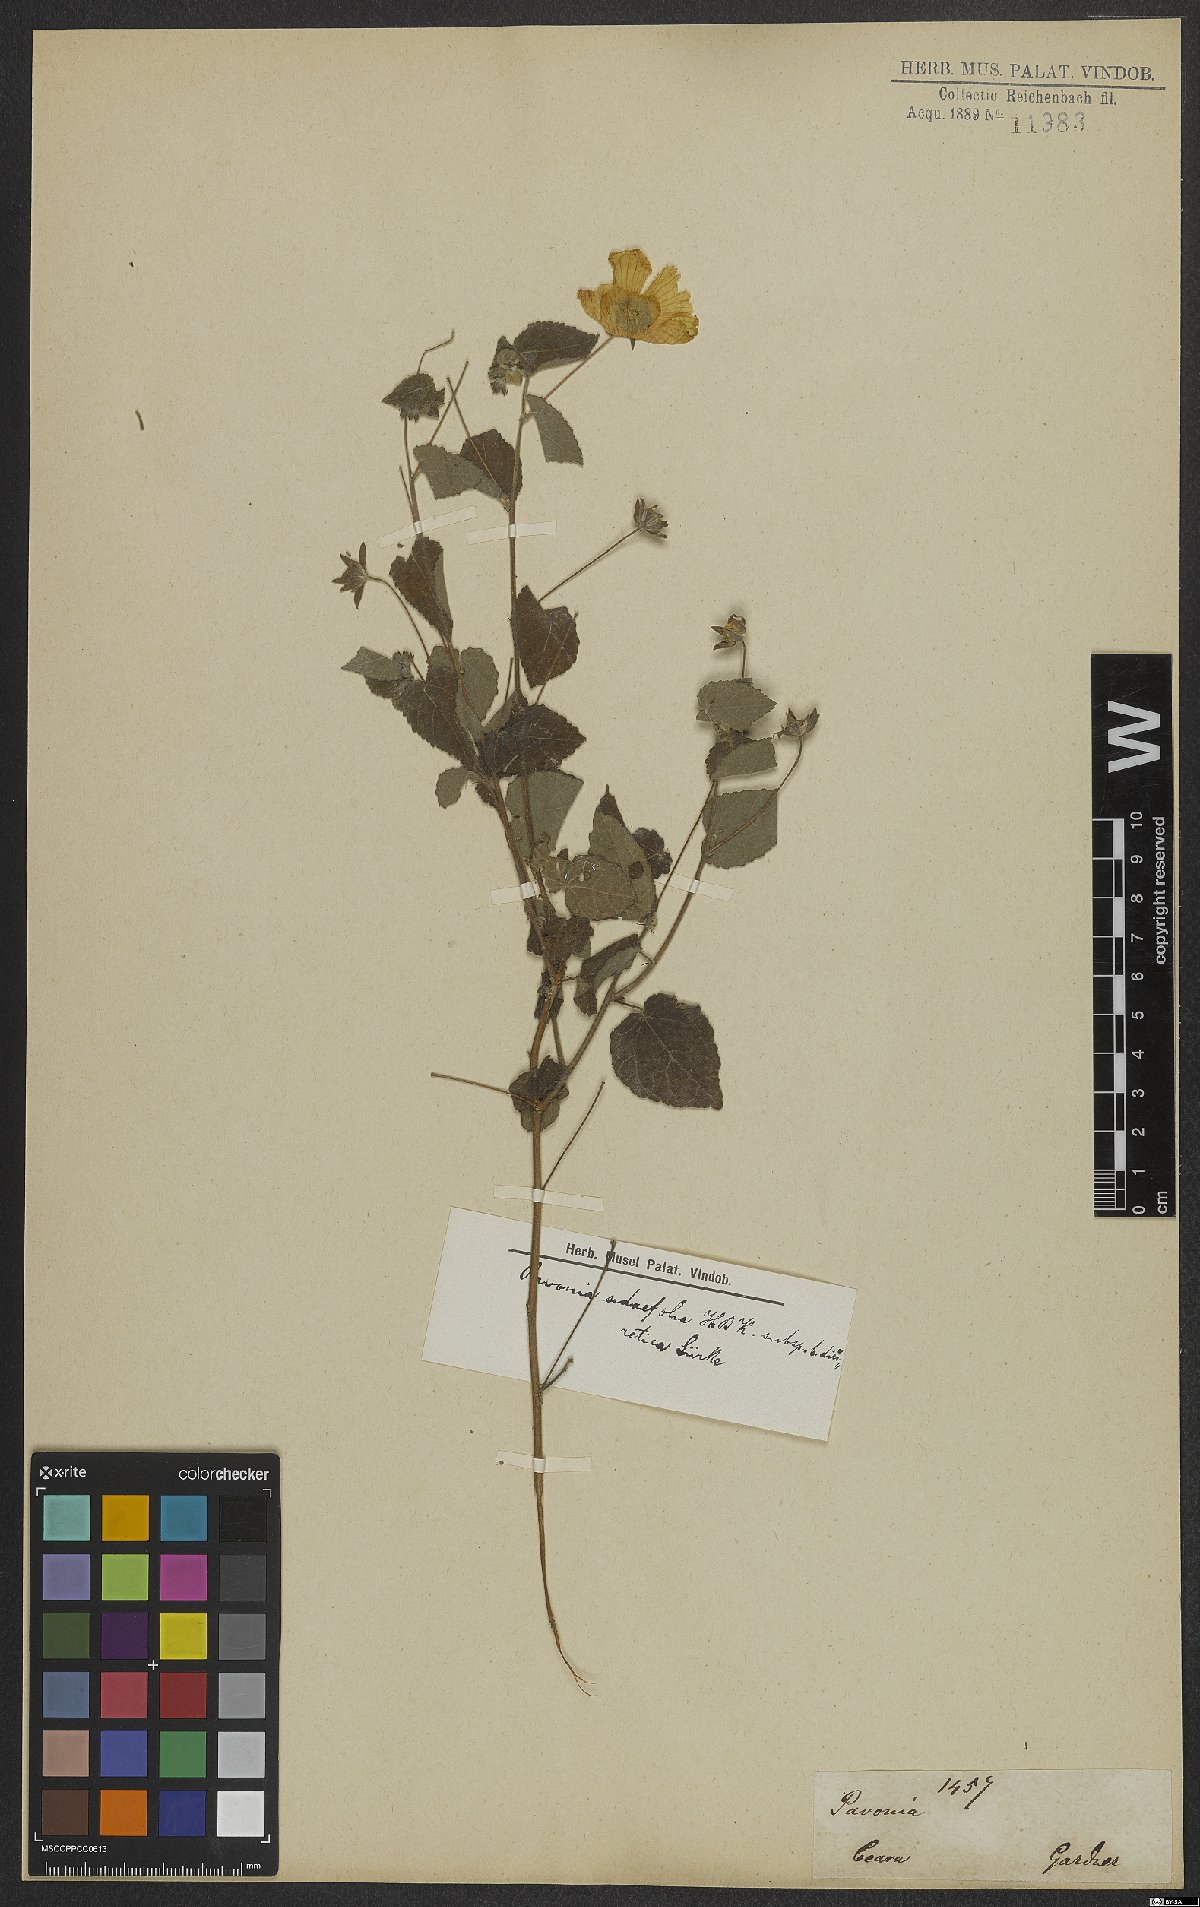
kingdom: Plantae
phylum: Tracheophyta
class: Magnoliopsida
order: Malvales
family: Malvaceae
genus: Pavonia
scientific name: Pavonia sidifolia
